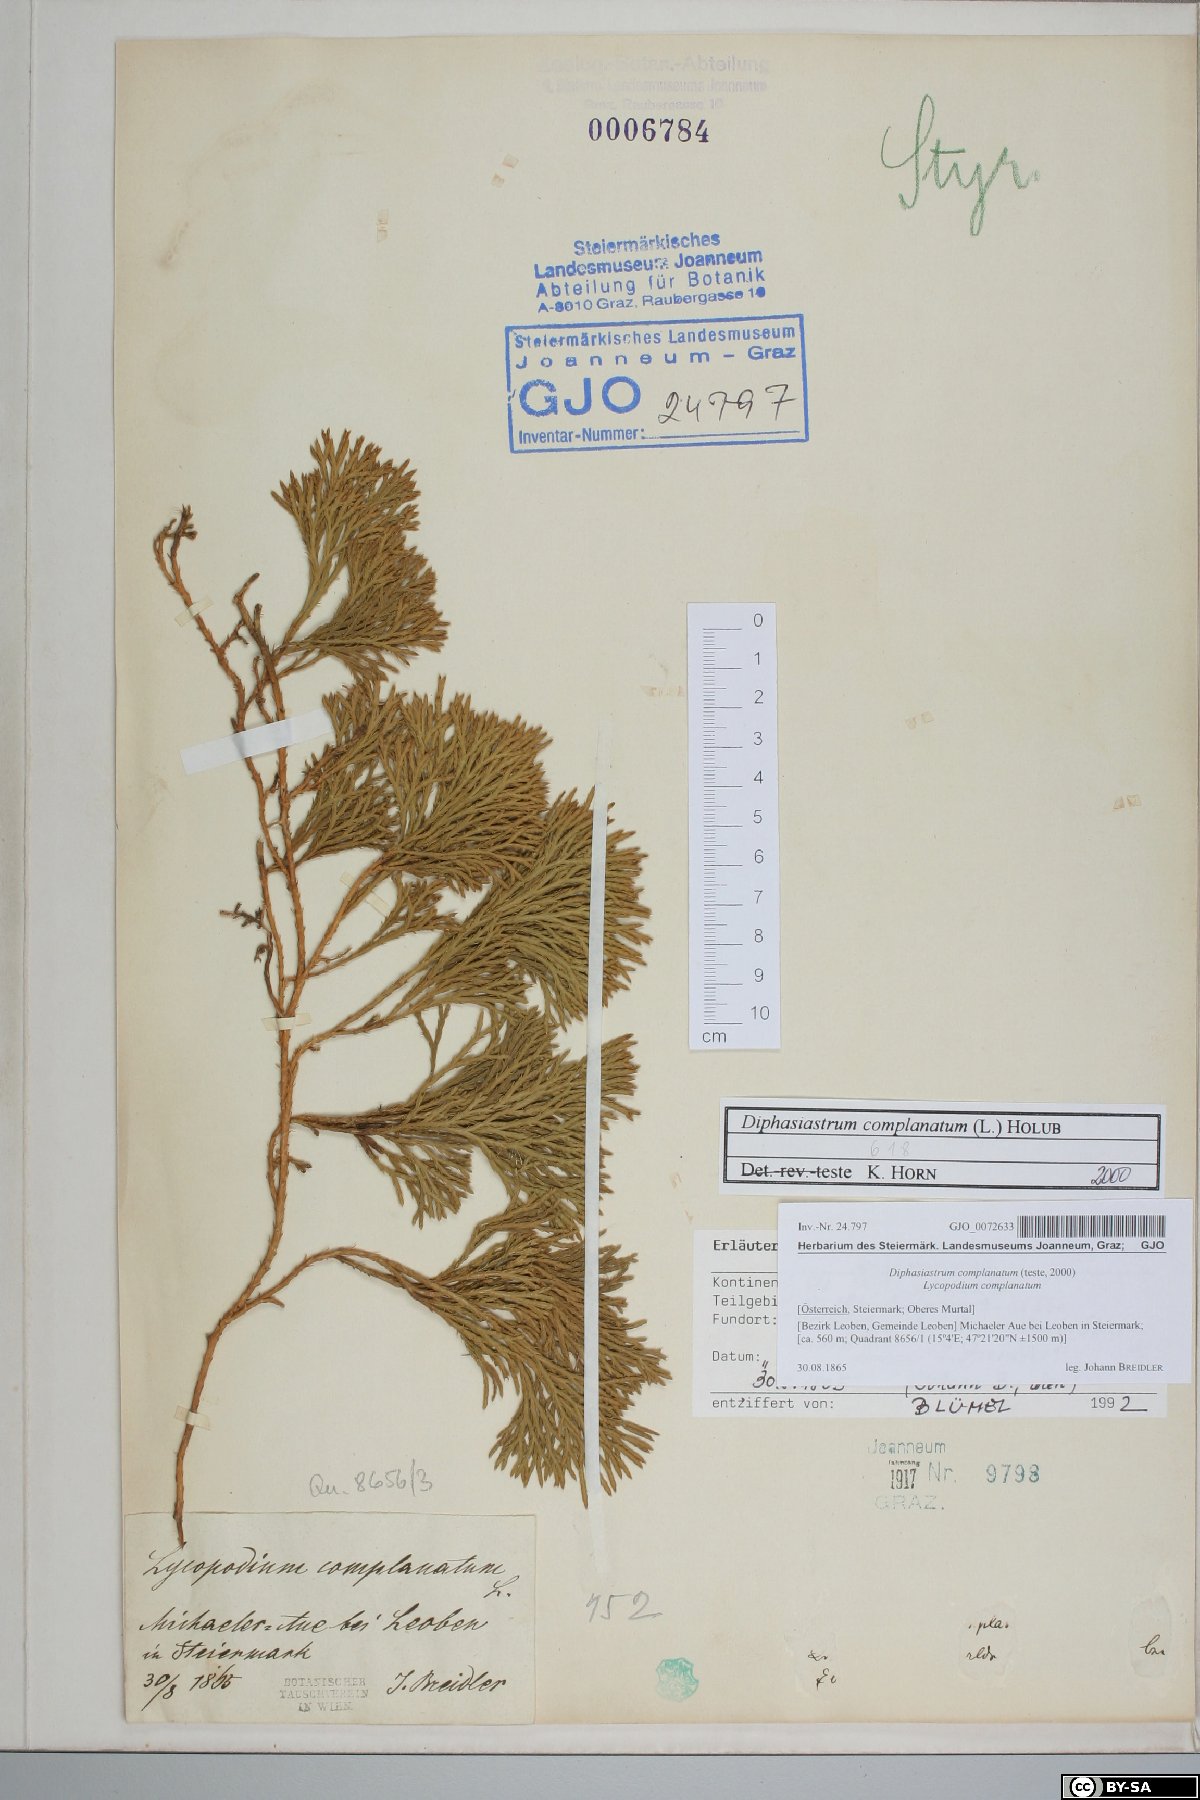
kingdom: Plantae
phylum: Tracheophyta
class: Lycopodiopsida
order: Lycopodiales
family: Lycopodiaceae
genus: Diphasiastrum
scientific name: Diphasiastrum complanatum
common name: Northern running-pine
